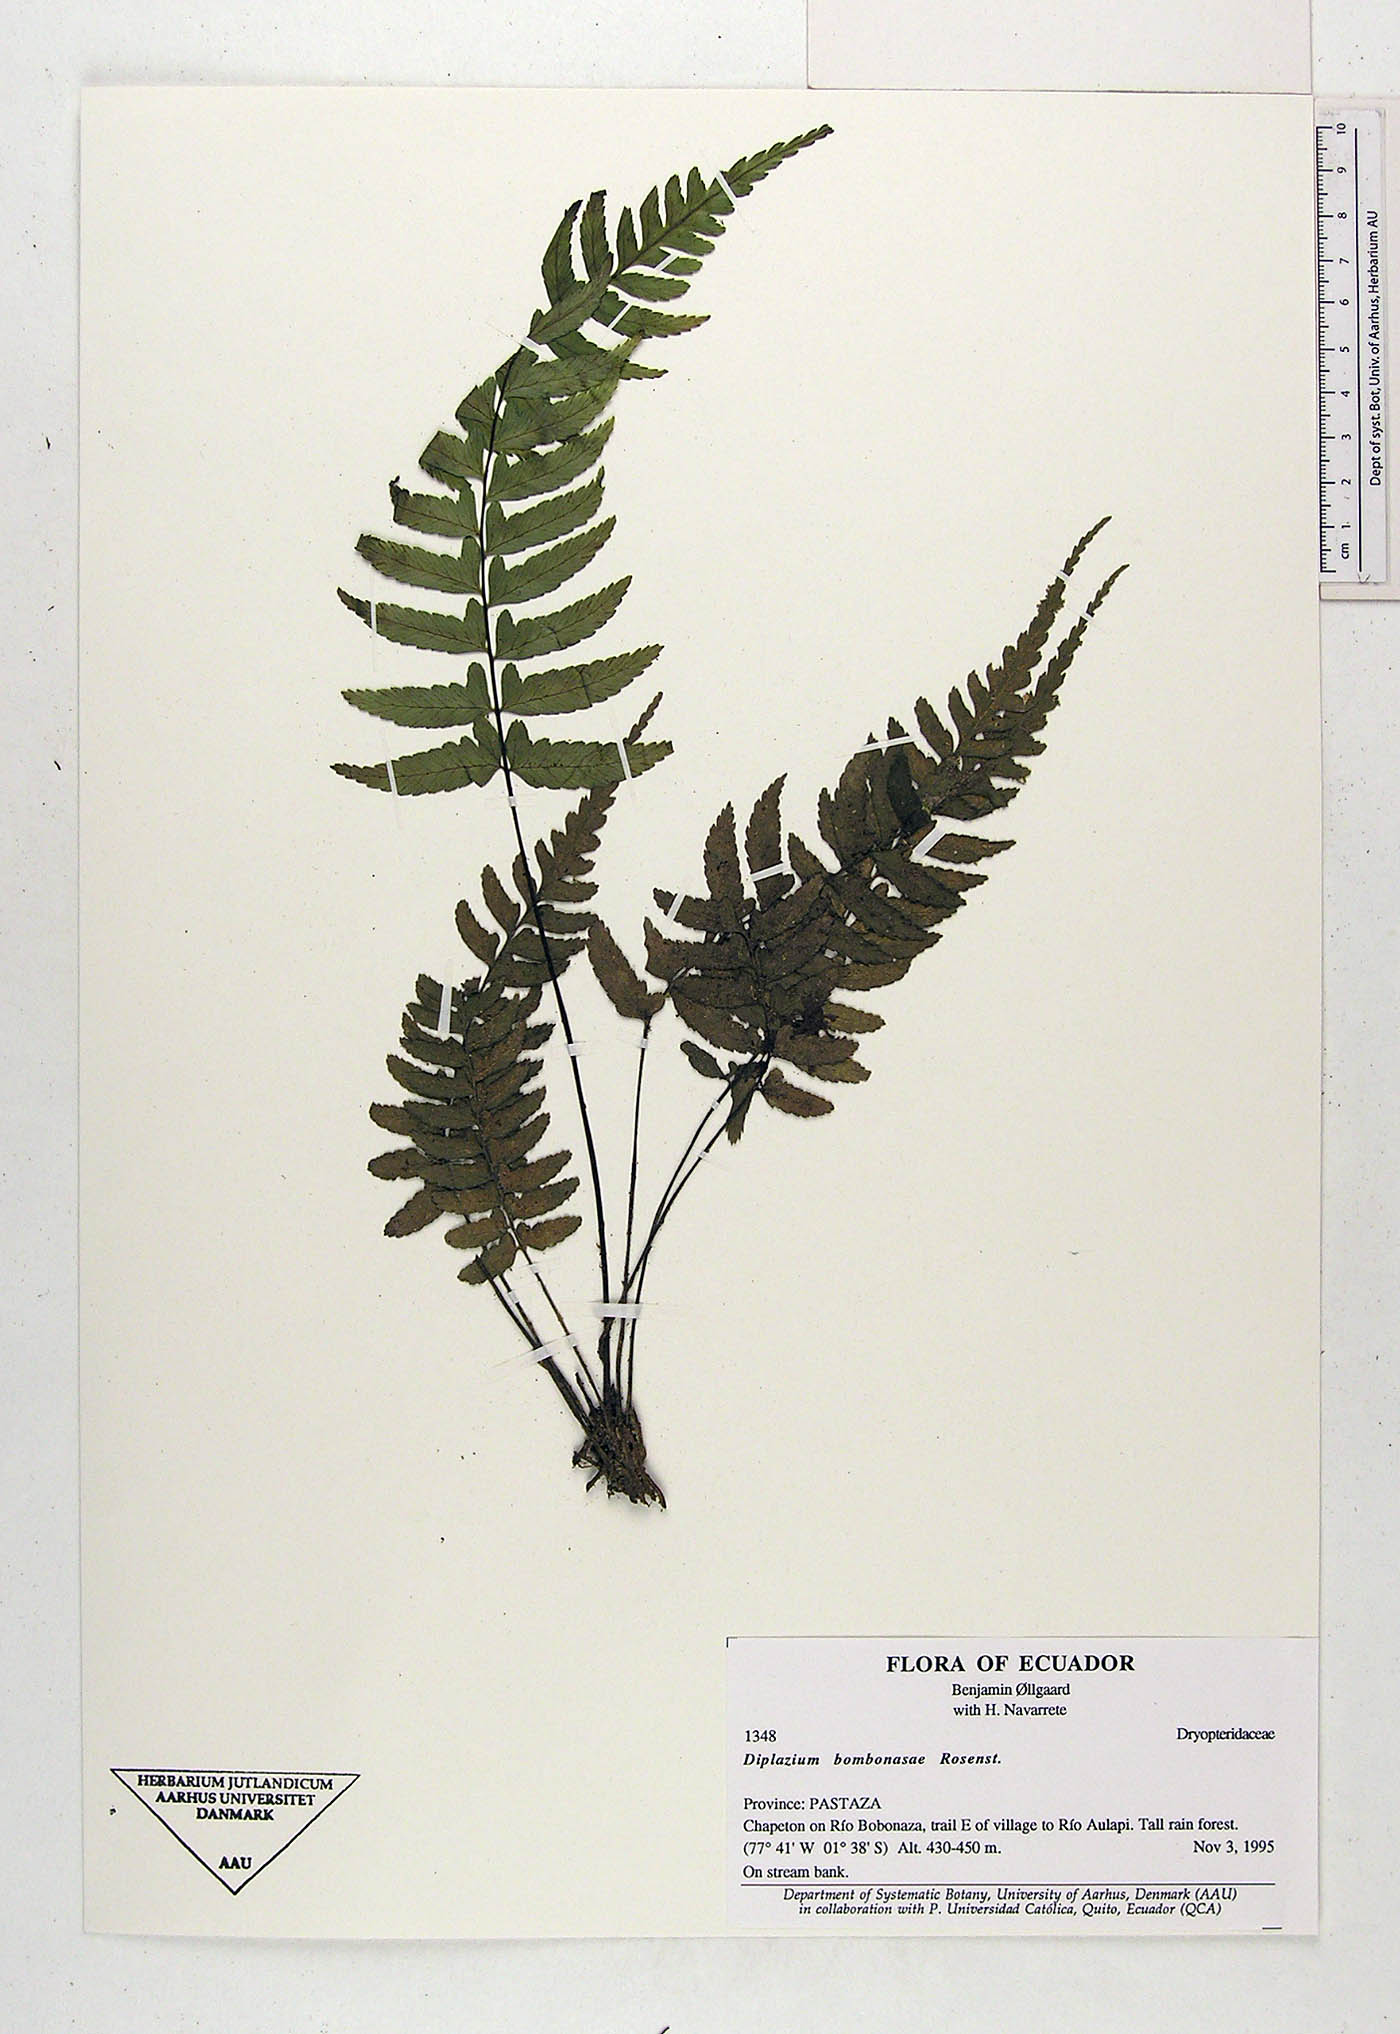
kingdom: Plantae
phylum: Tracheophyta
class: Polypodiopsida
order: Polypodiales
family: Athyriaceae
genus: Diplazium
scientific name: Diplazium bombonasae
